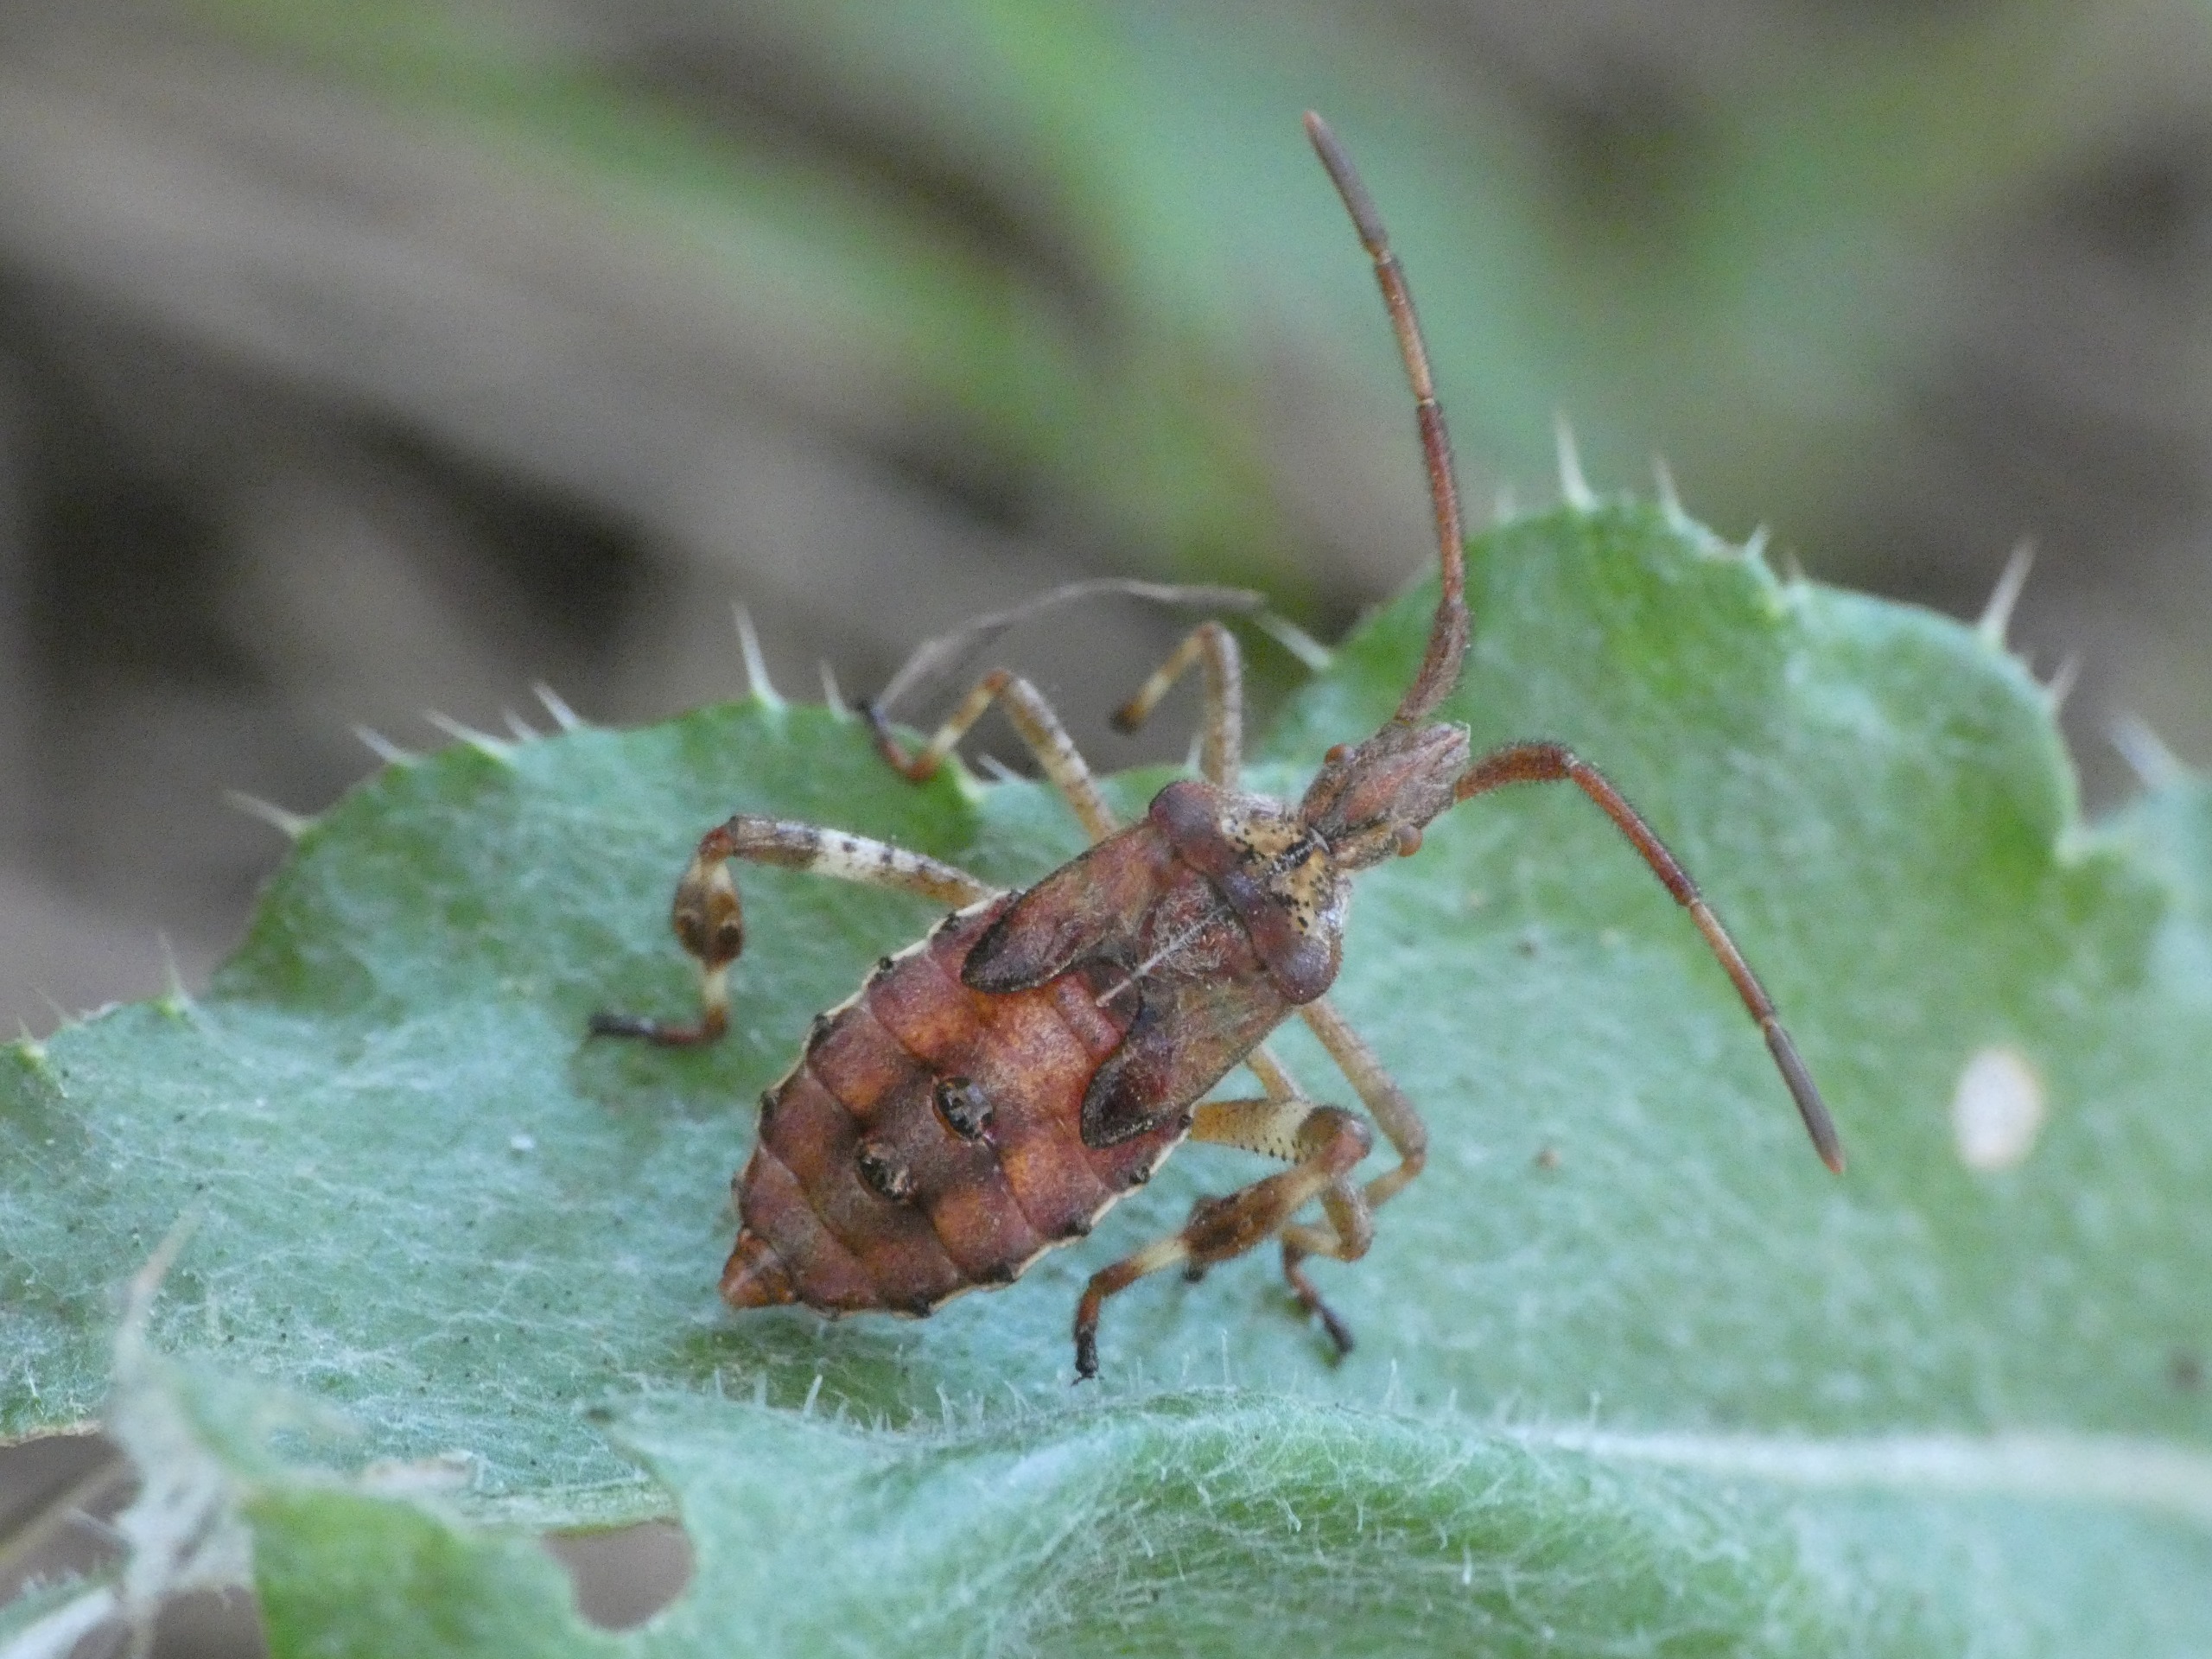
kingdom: Animalia
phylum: Arthropoda
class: Insecta
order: Hemiptera
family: Coreidae
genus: Leptoglossus
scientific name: Leptoglossus occidentalis
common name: Amerikansk fyrretæge
